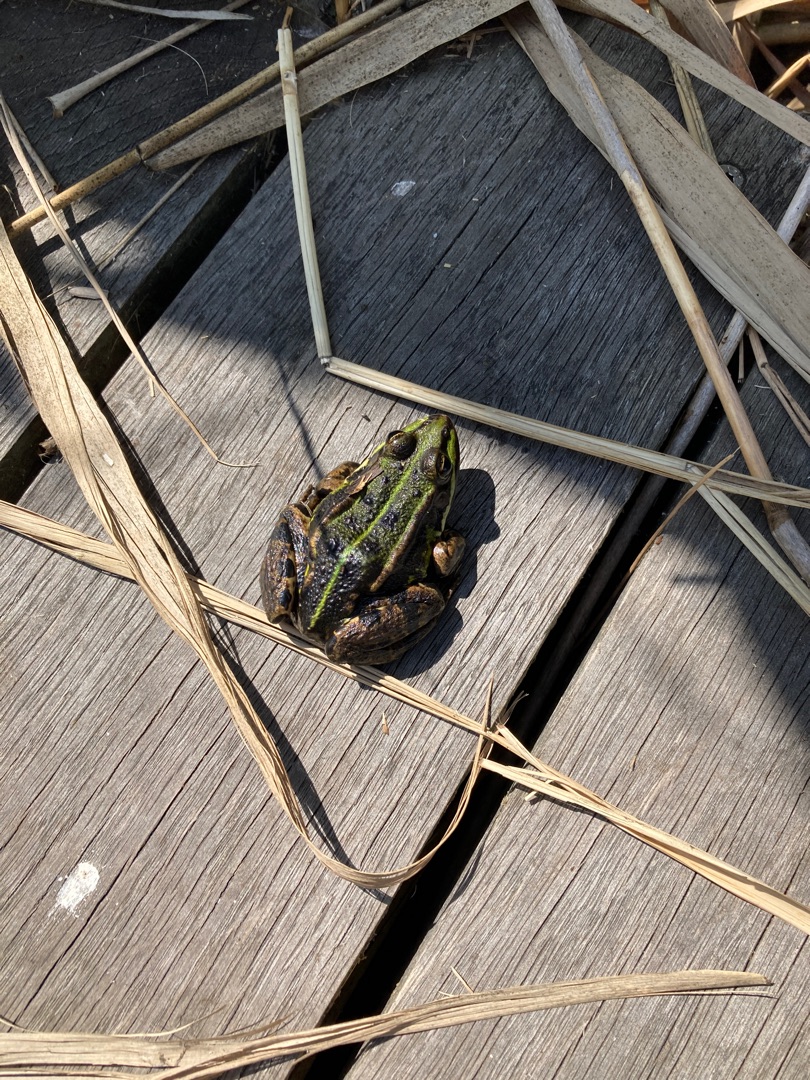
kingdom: Animalia
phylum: Chordata
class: Amphibia
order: Anura
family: Ranidae
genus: Pelophylax
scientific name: Pelophylax lessonae
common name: Grøn frø
